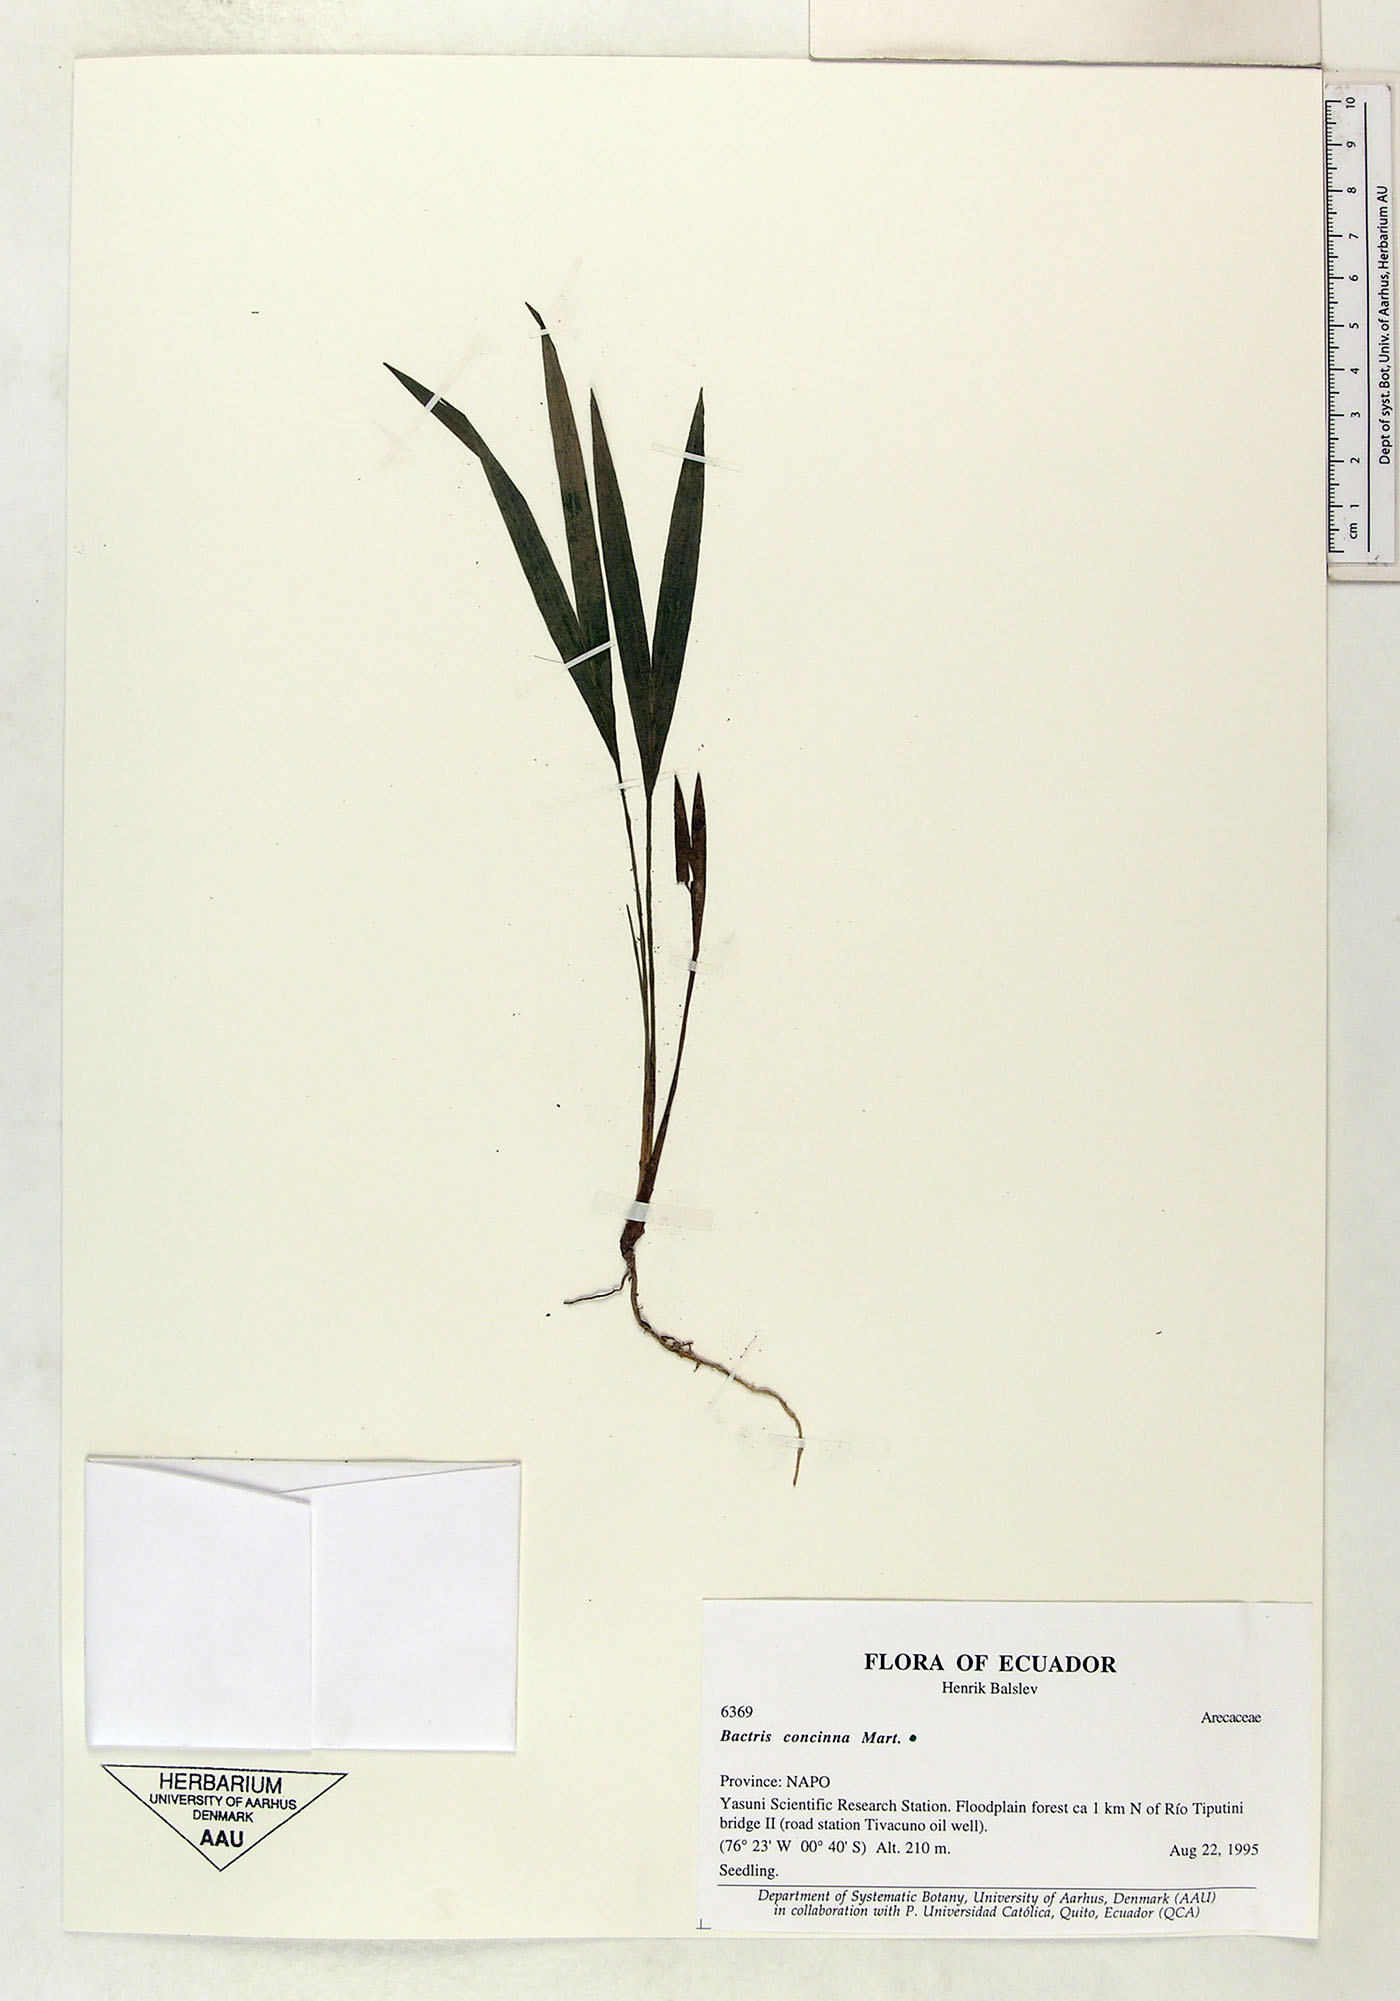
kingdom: Plantae
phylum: Tracheophyta
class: Liliopsida
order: Arecales
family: Arecaceae
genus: Bactris
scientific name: Bactris concinna
